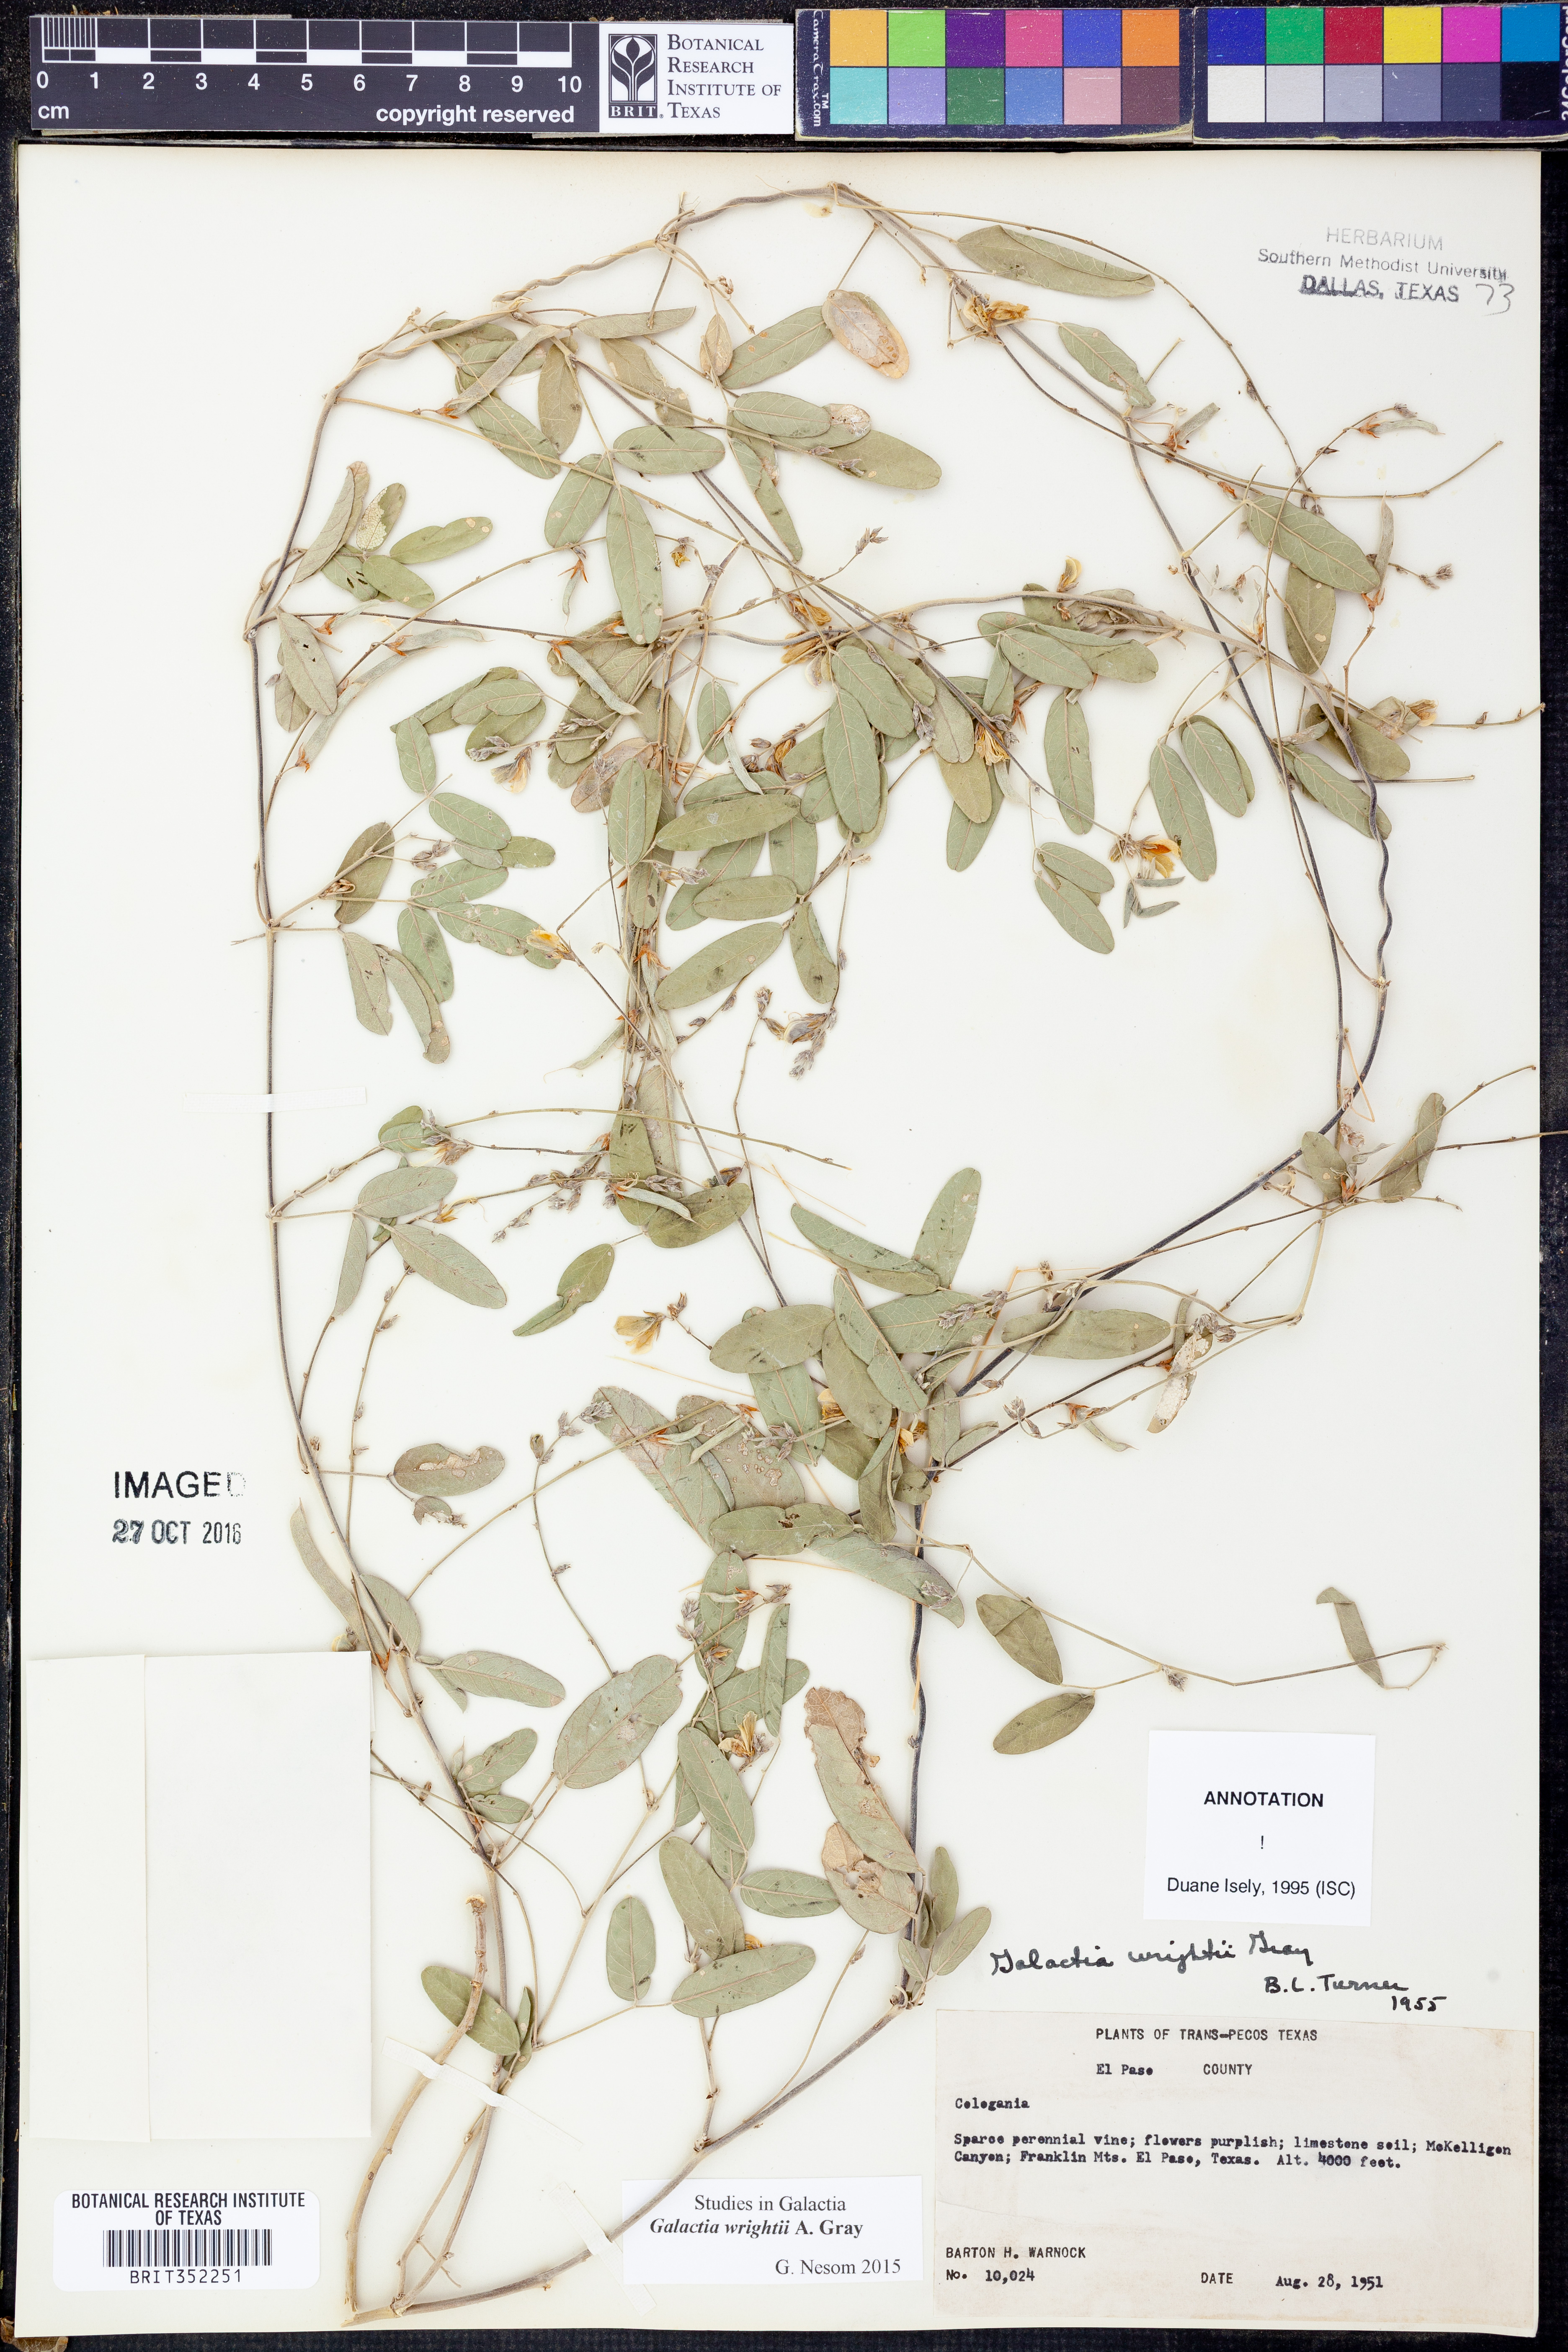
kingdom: Plantae
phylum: Tracheophyta
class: Magnoliopsida
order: Fabales
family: Fabaceae
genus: Galactia
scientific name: Galactia wrightii
